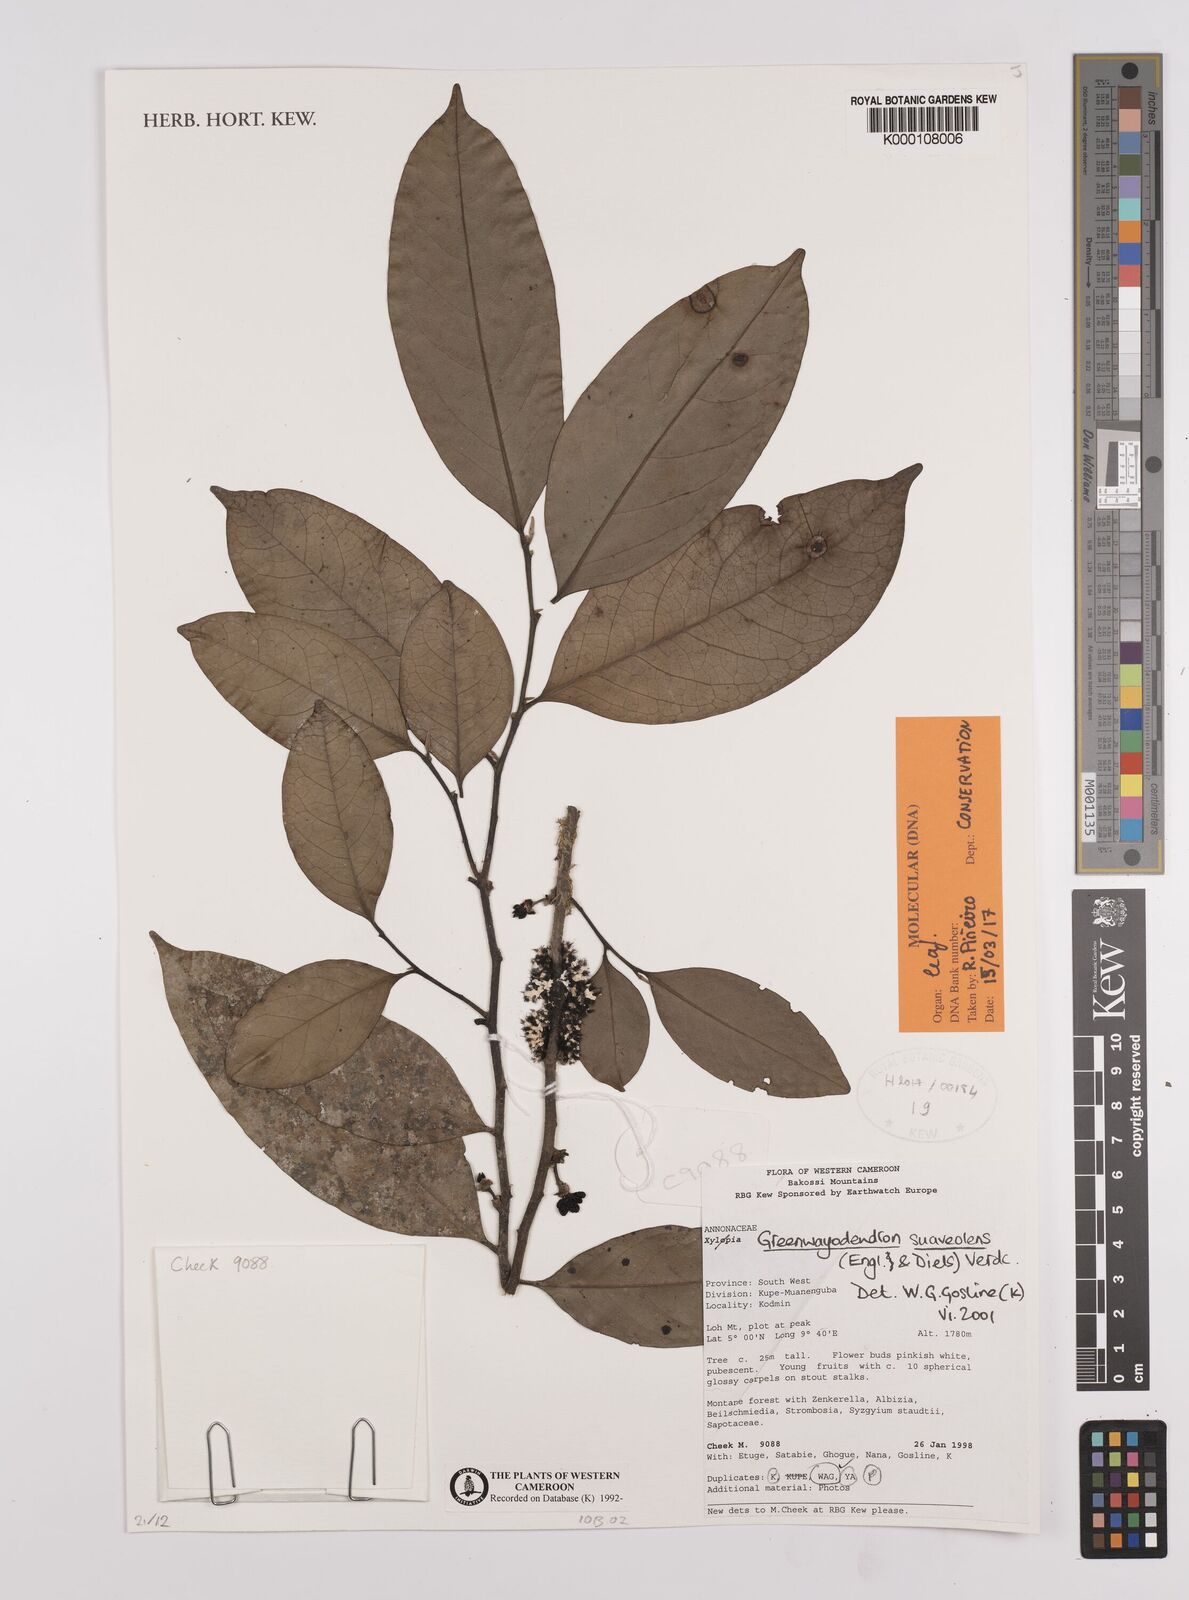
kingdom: Plantae
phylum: Tracheophyta
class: Magnoliopsida
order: Magnoliales
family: Annonaceae
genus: Greenwayodendron
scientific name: Greenwayodendron suaveolens
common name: Molinda
